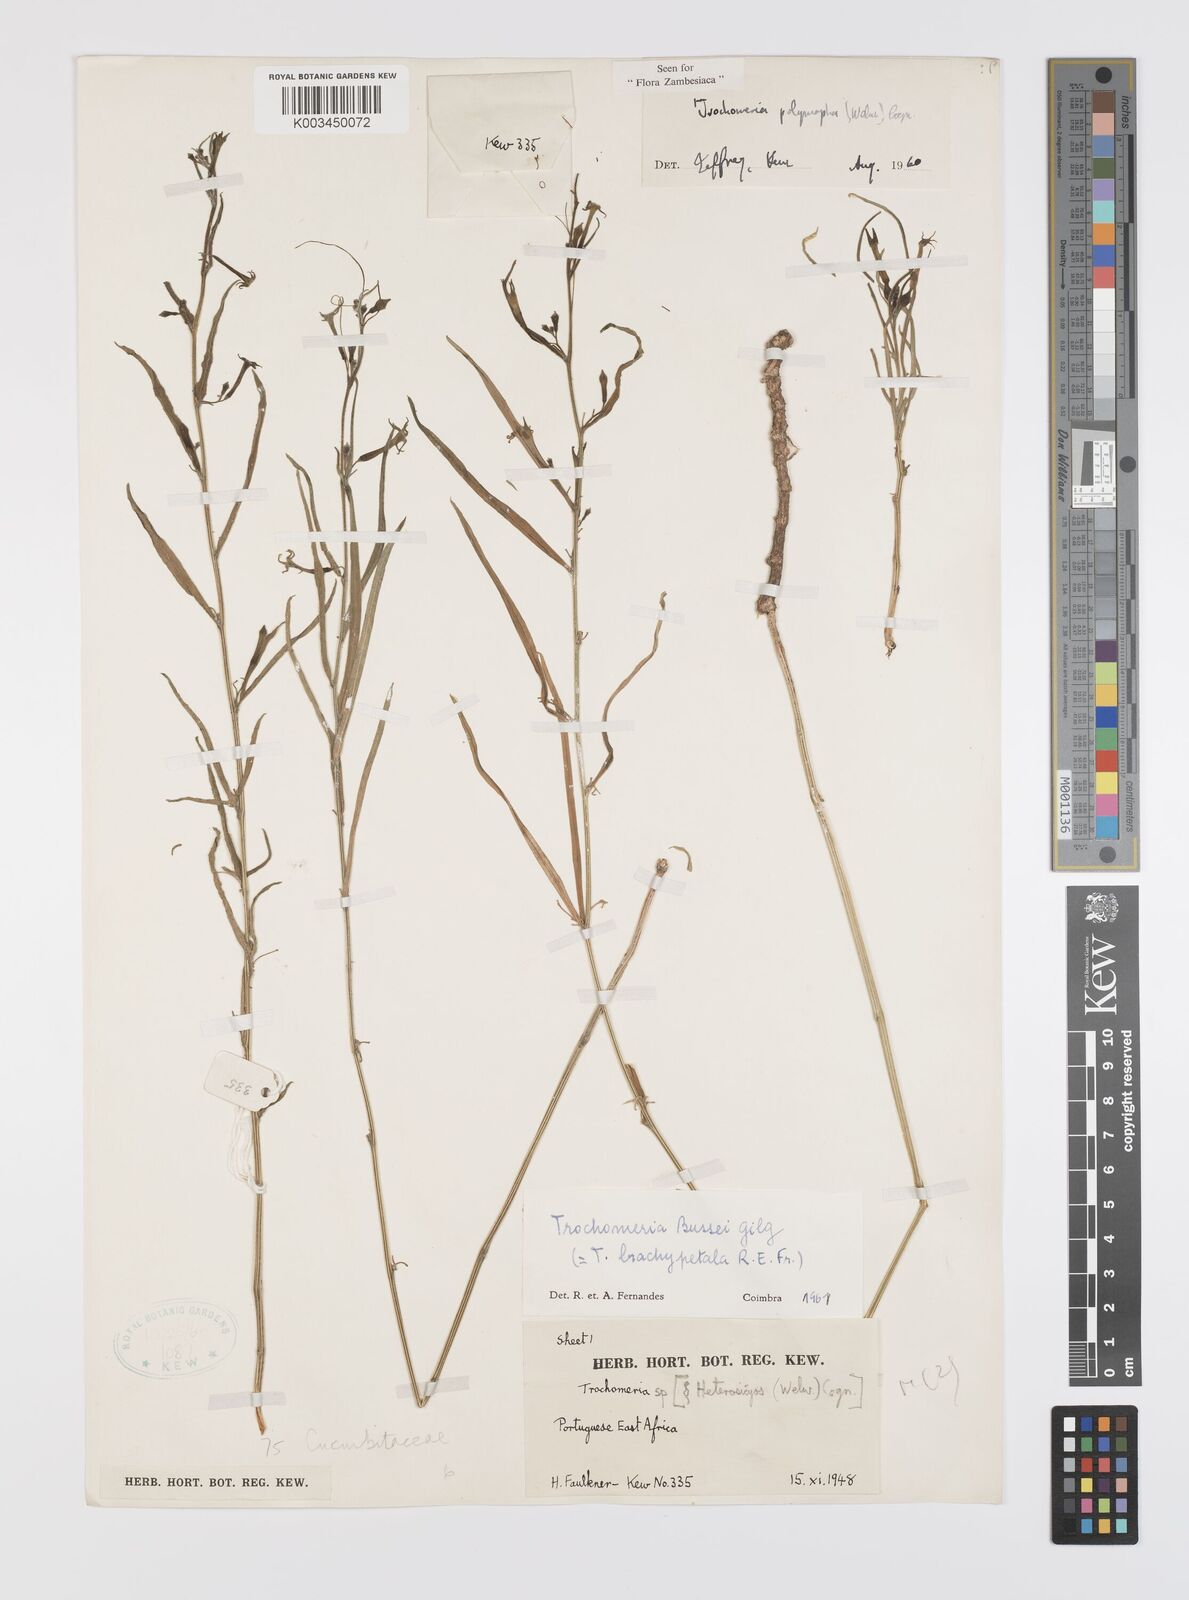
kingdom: Plantae
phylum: Tracheophyta
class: Magnoliopsida
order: Cucurbitales
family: Cucurbitaceae
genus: Trochomeria
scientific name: Trochomeria polymorpha
